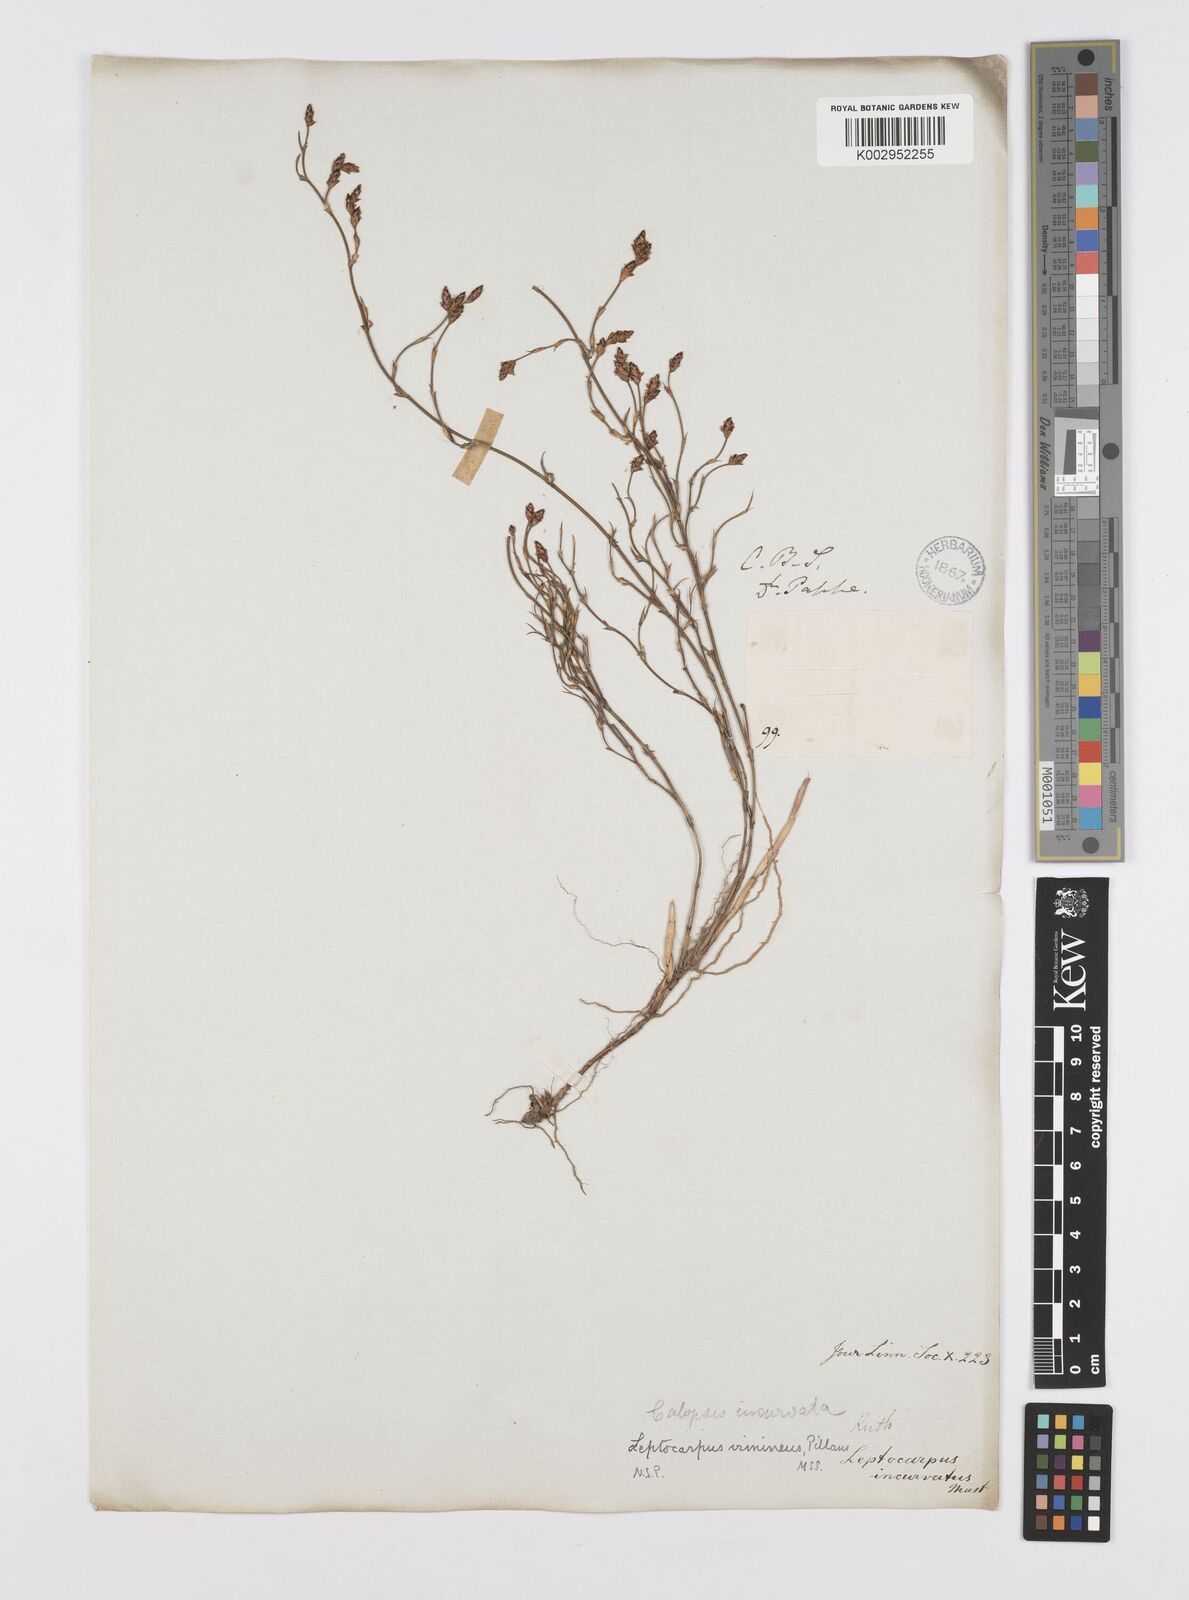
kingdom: Plantae
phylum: Tracheophyta
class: Liliopsida
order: Poales
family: Restionaceae
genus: Restio
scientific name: Restio vimineus
